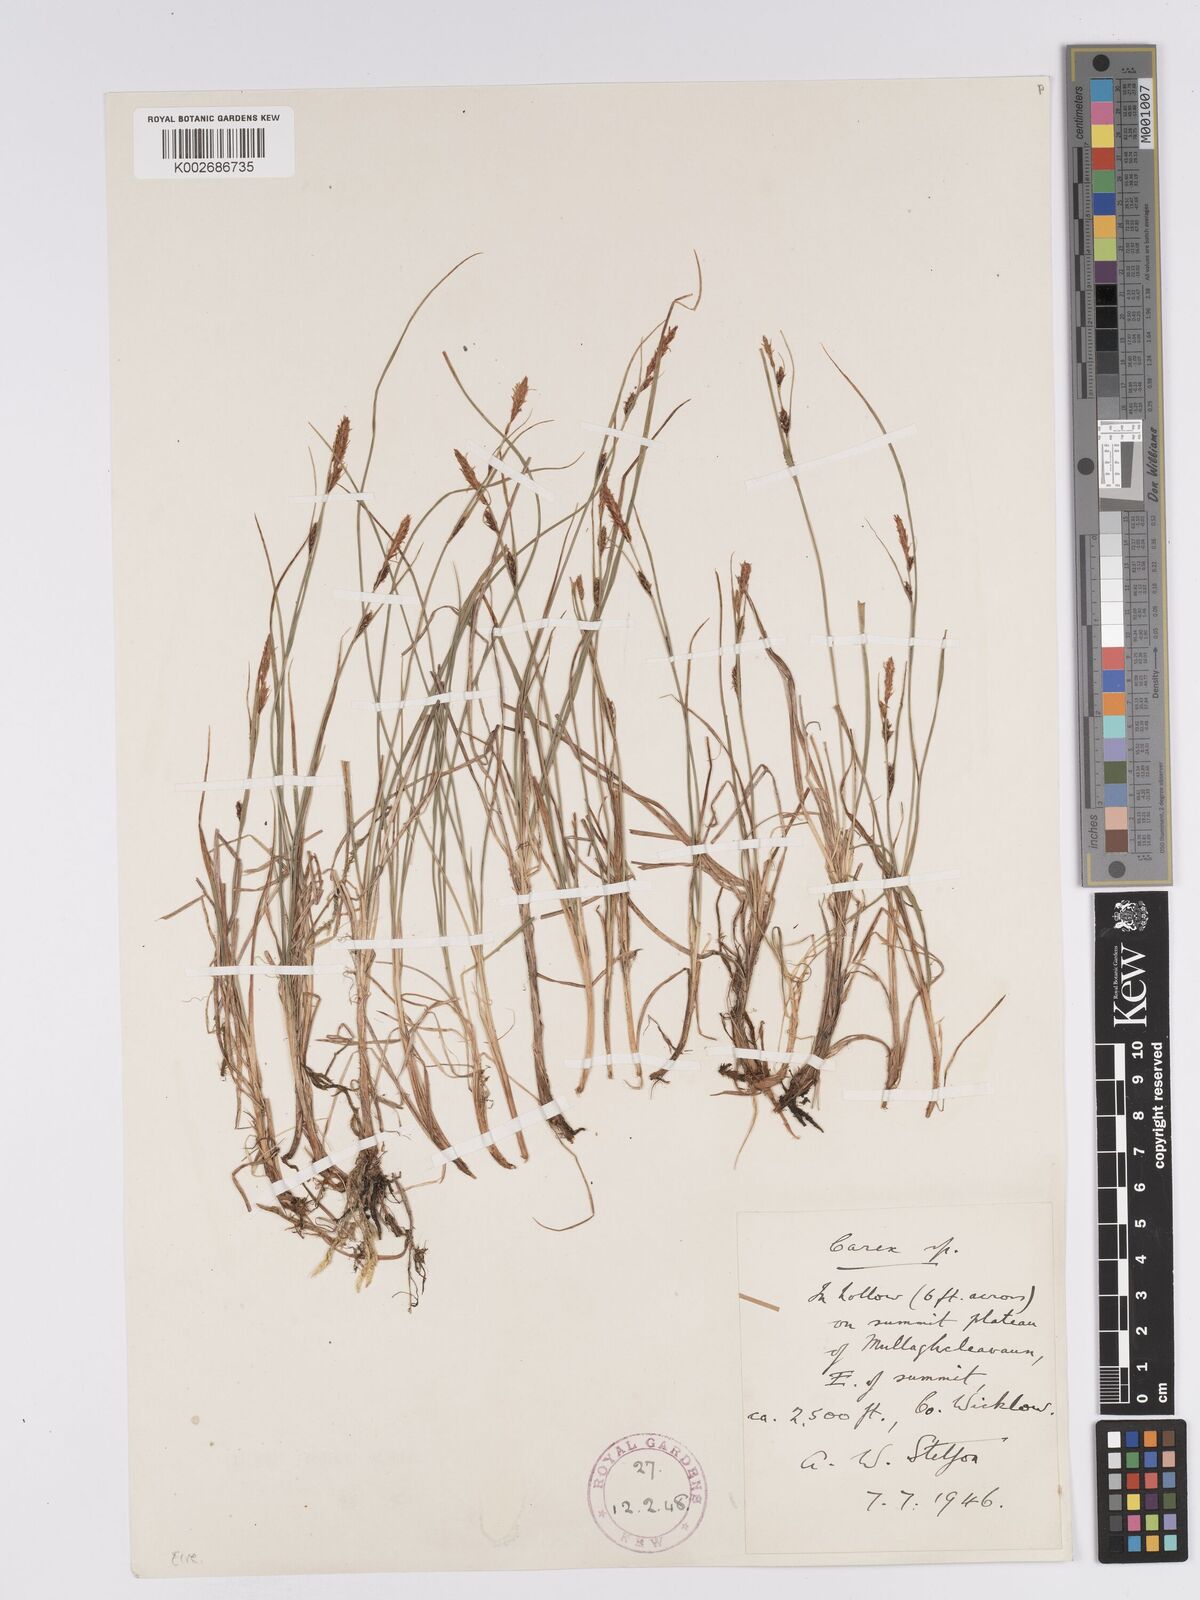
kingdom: Plantae
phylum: Tracheophyta
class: Liliopsida
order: Poales
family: Cyperaceae
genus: Carex
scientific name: Carex aquatilis
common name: Water sedge
